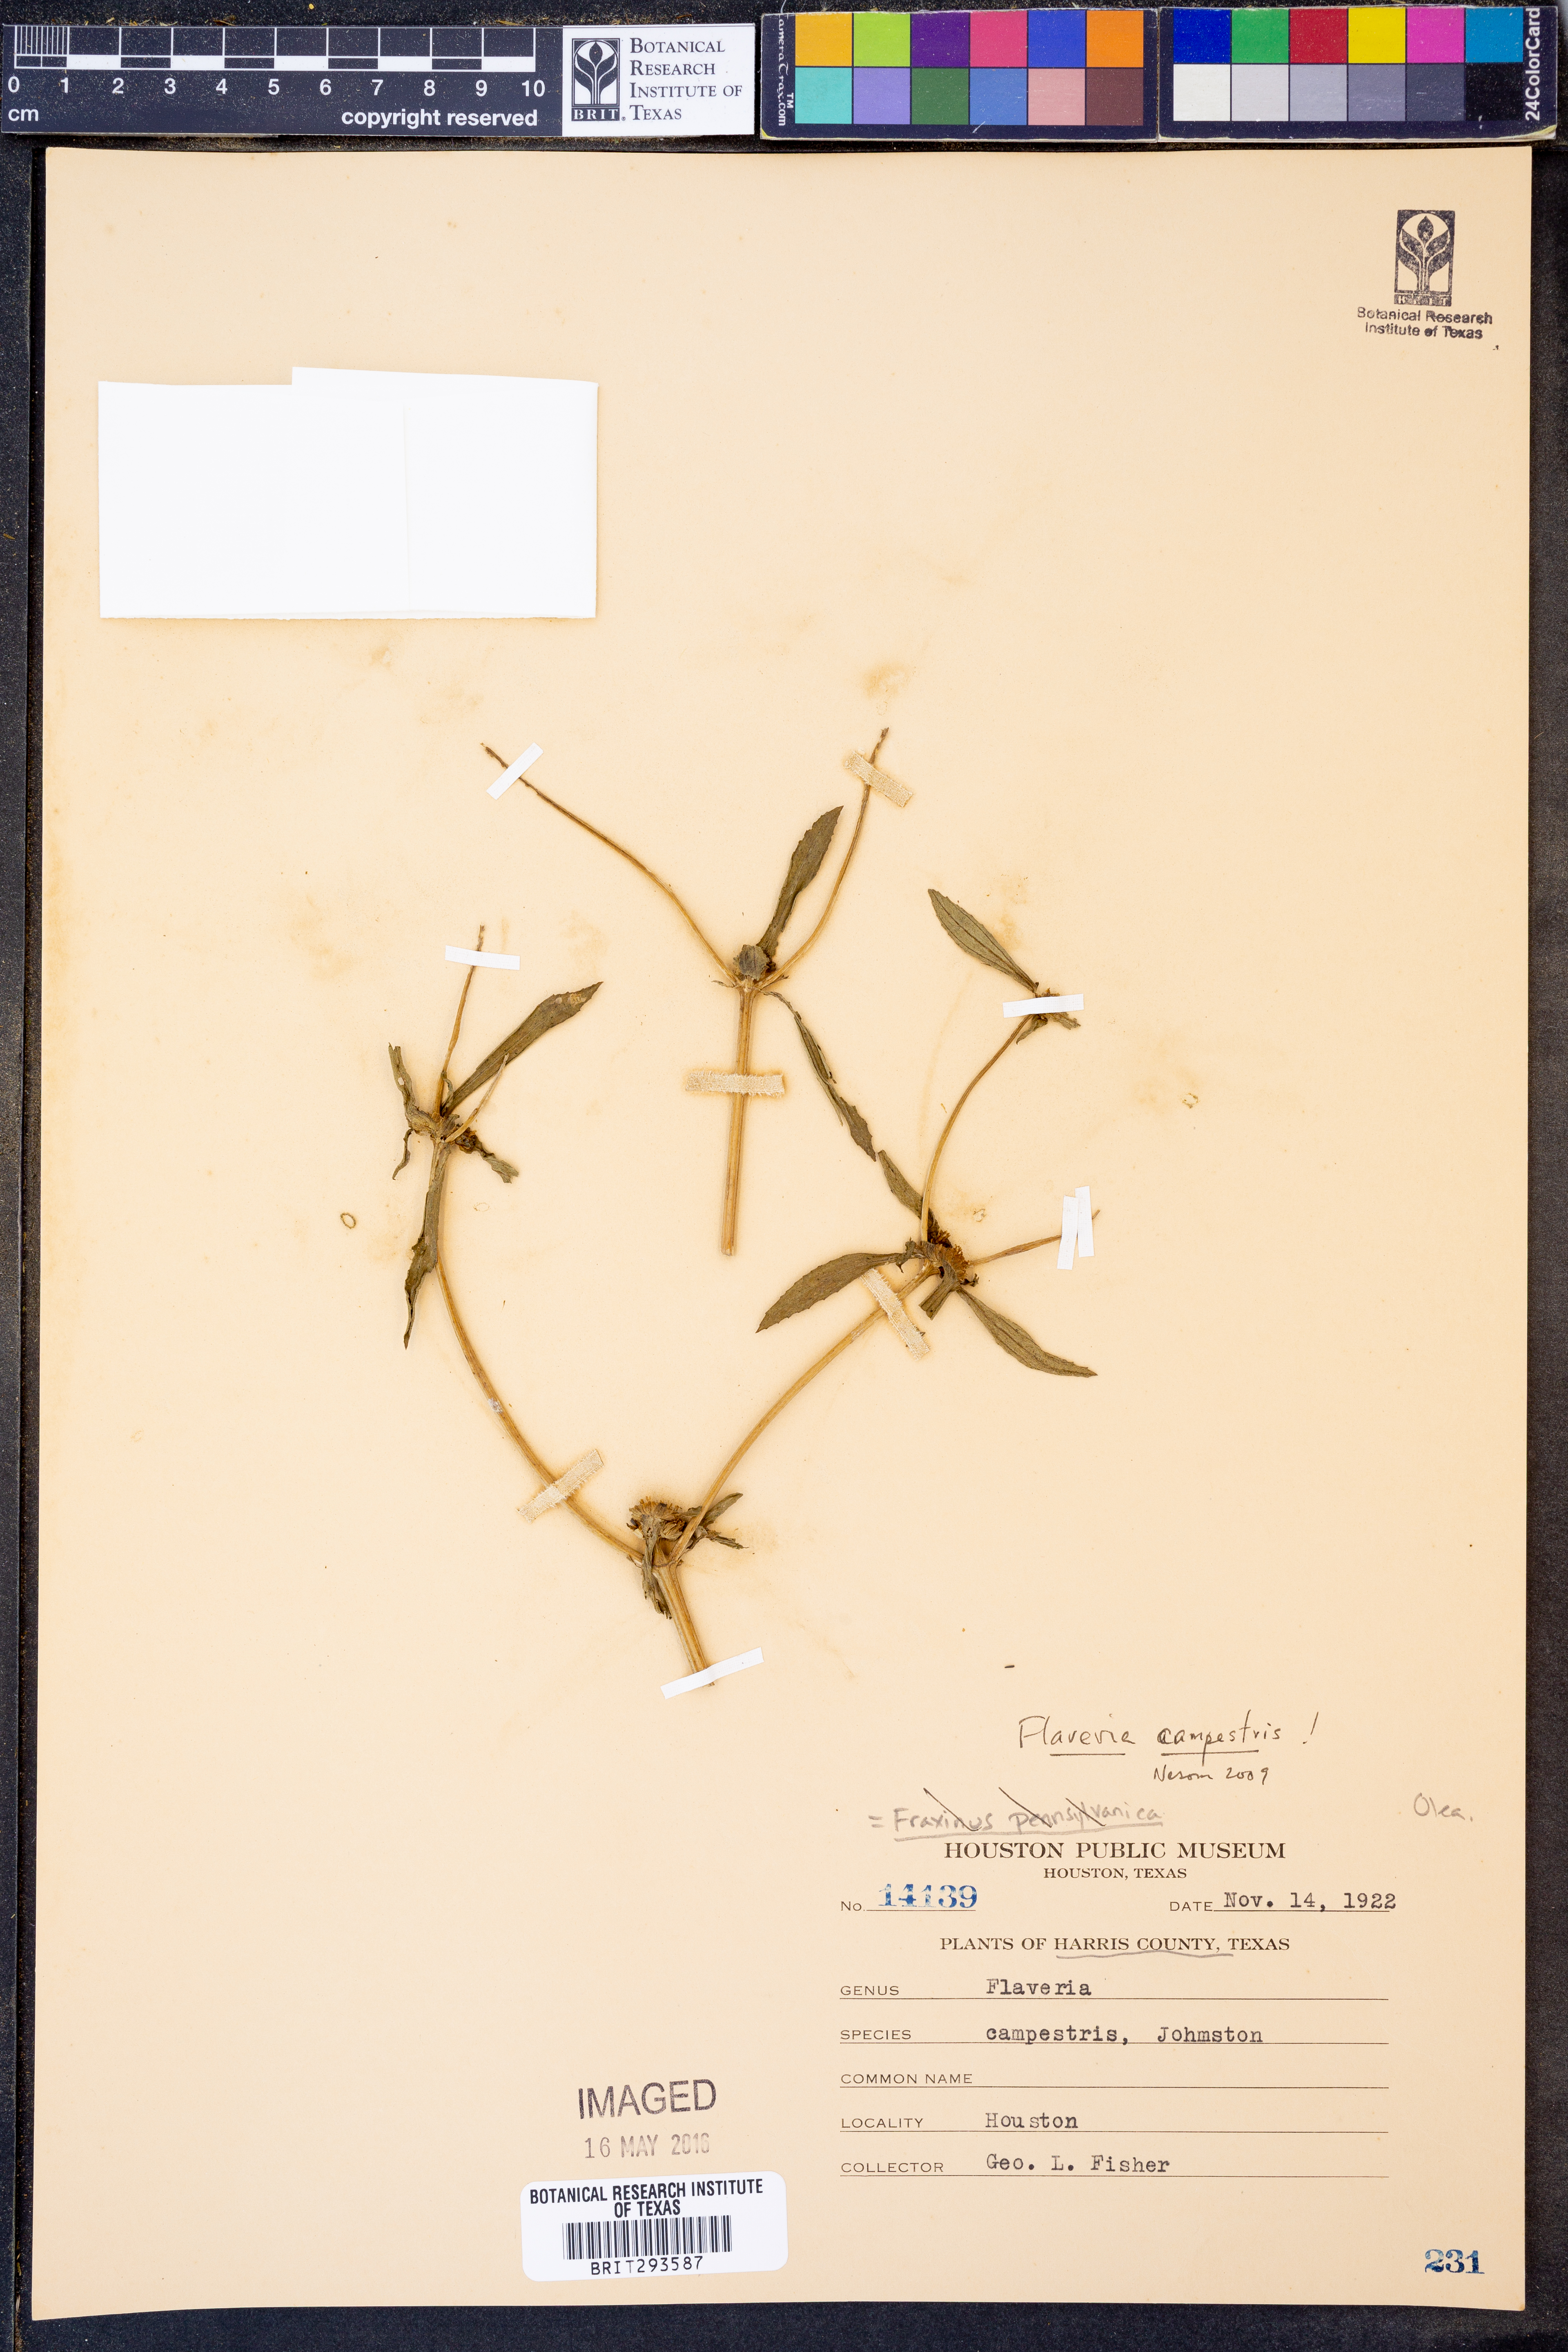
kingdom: Plantae
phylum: Tracheophyta
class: Magnoliopsida
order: Asterales
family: Asteraceae
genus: Flaveria
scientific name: Flaveria campestris
